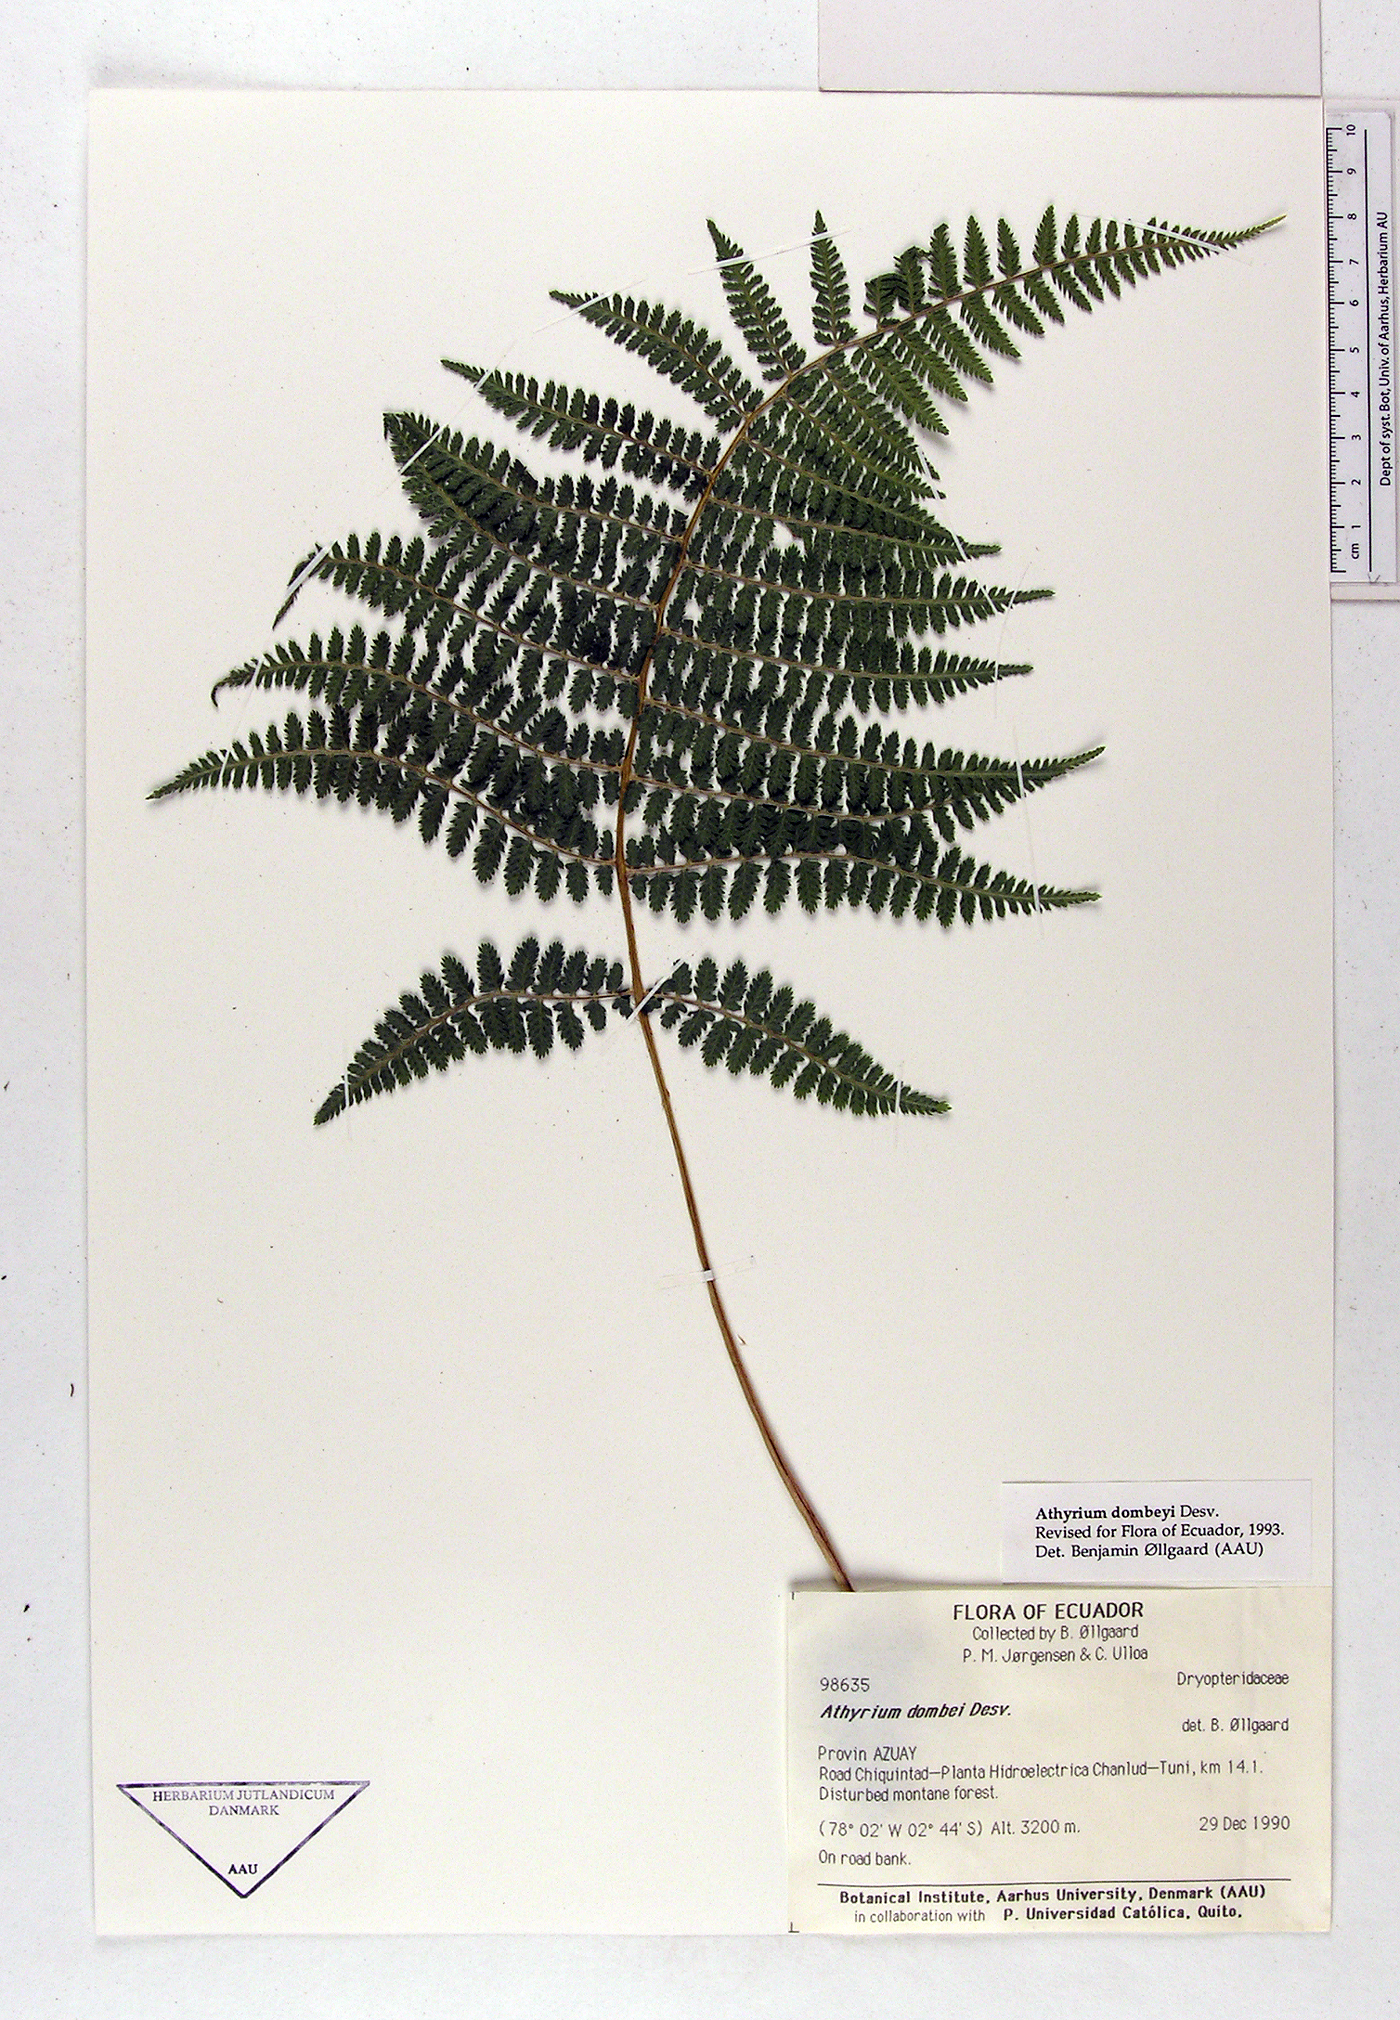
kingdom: Plantae
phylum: Tracheophyta
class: Polypodiopsida
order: Polypodiales
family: Athyriaceae
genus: Athyrium
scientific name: Athyrium dombeyi
